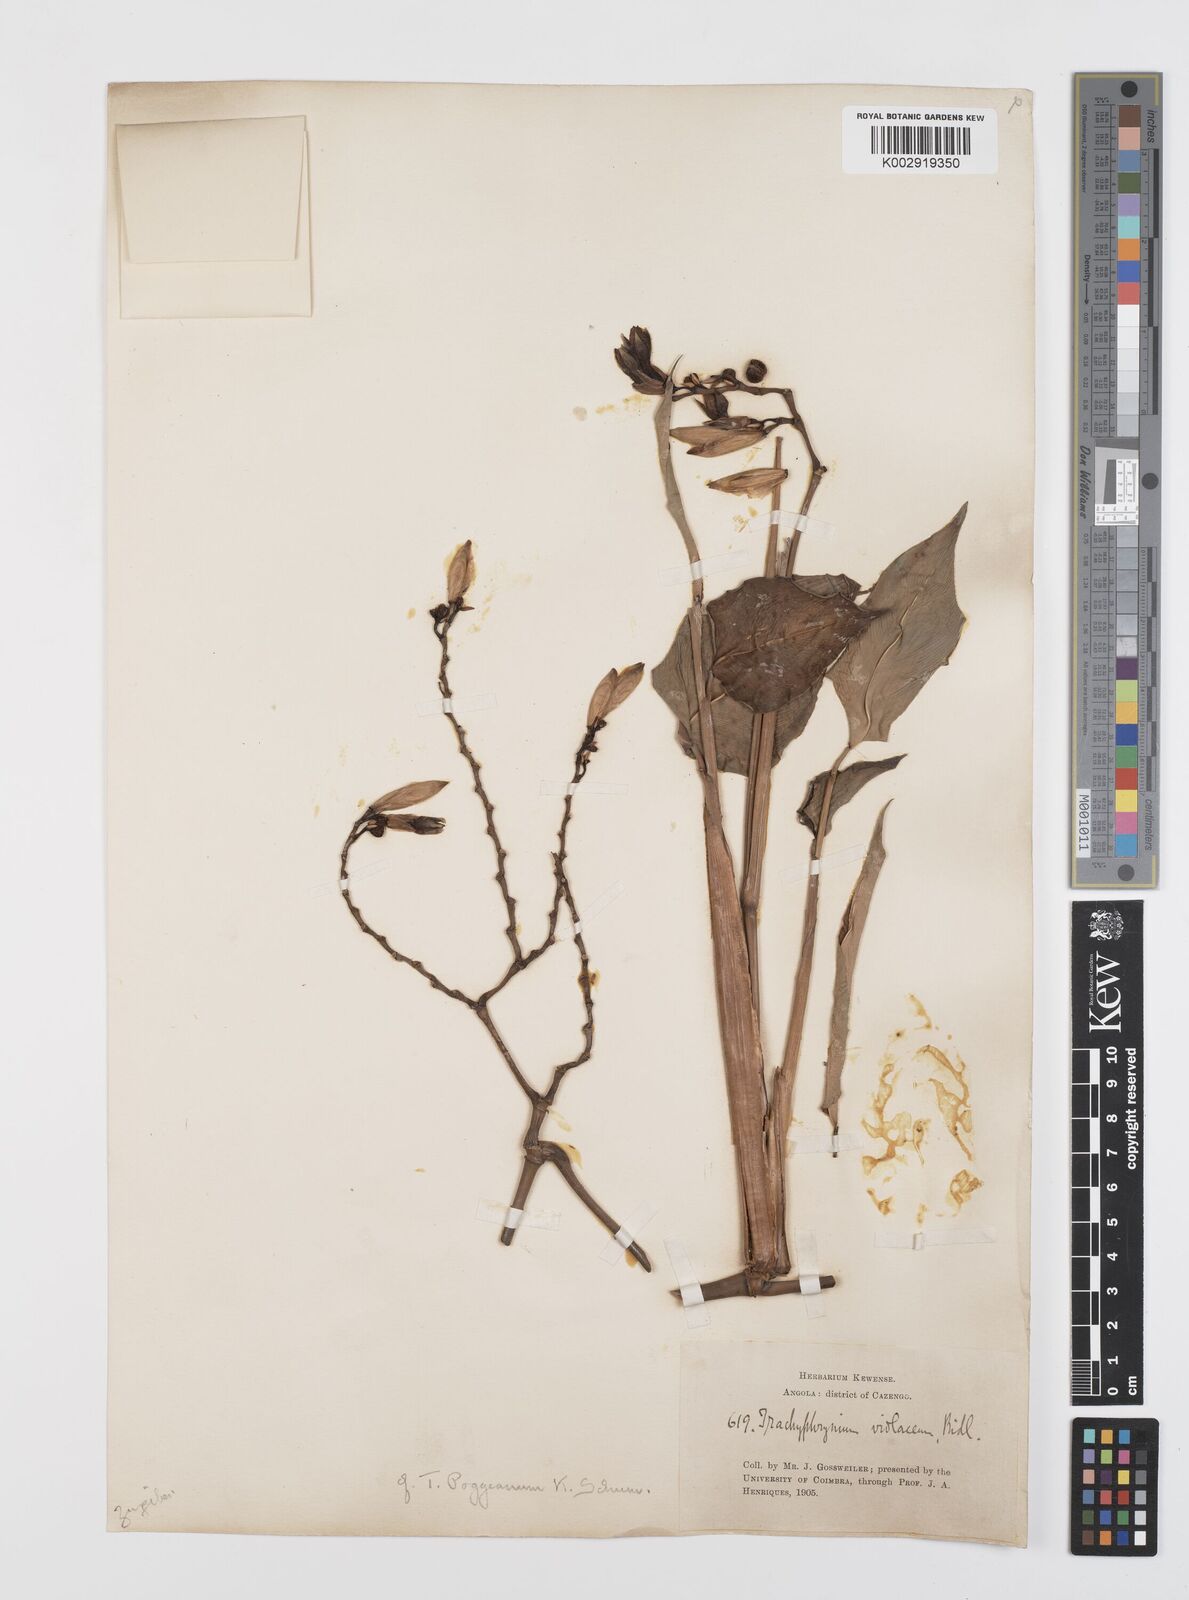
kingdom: Plantae
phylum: Tracheophyta
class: Liliopsida
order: Zingiberales
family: Marantaceae
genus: Hypselodelphys
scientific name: Hypselodelphys poggeana
